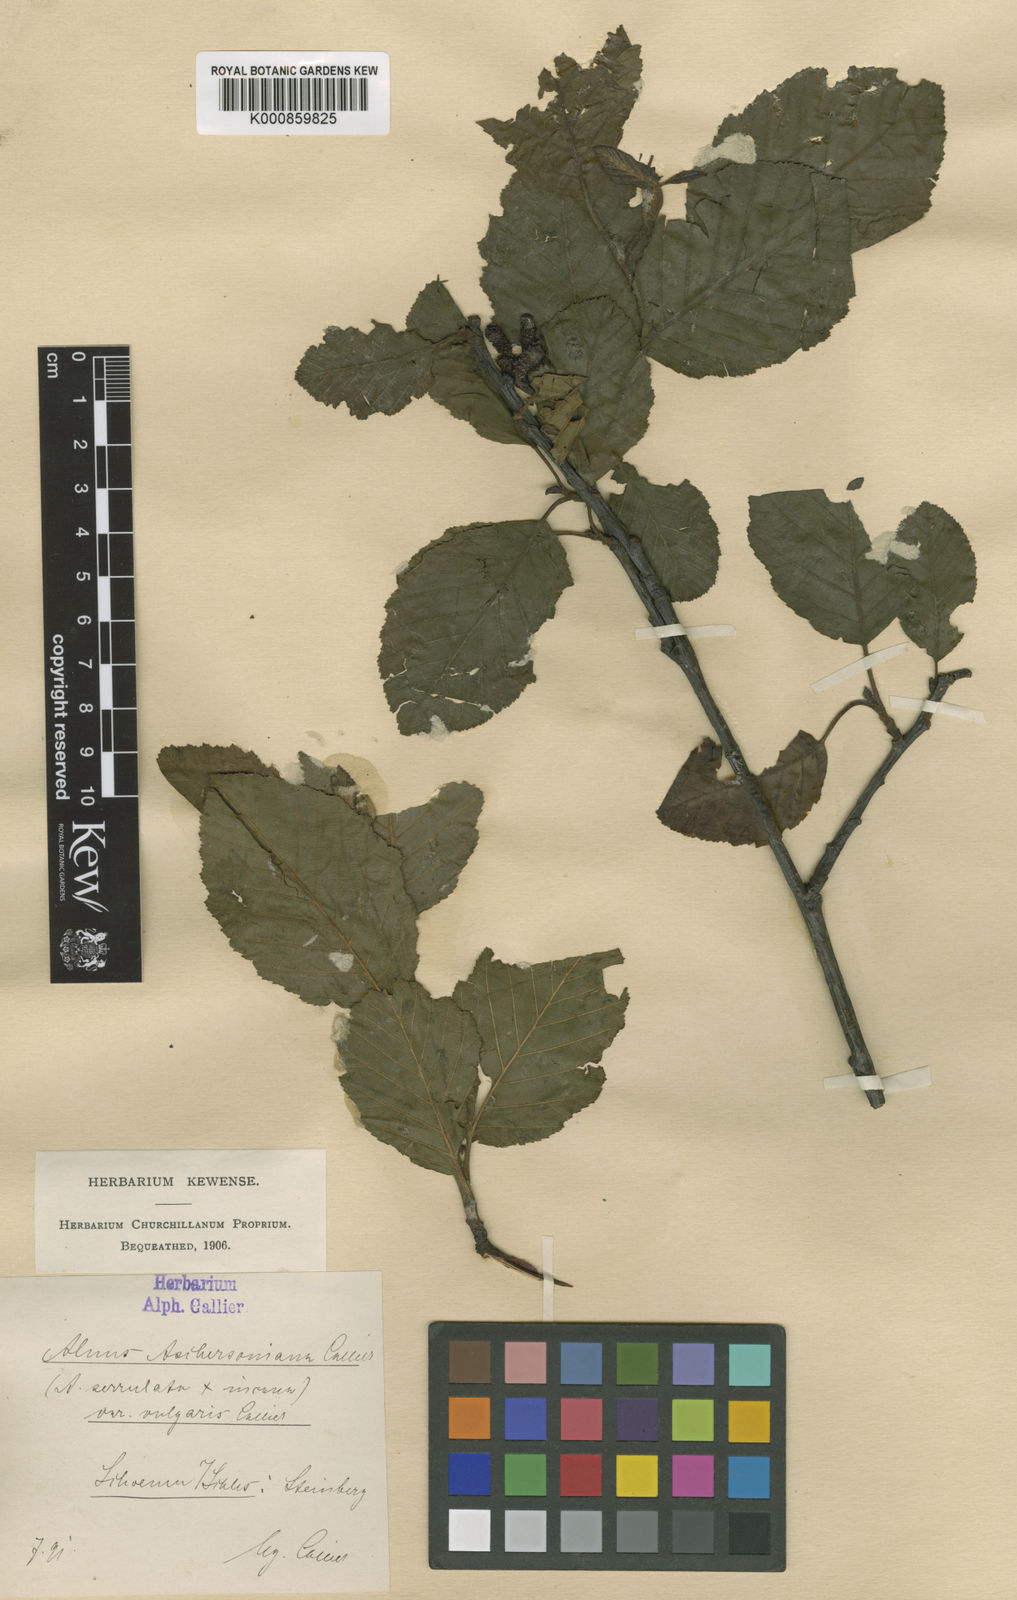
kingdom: Plantae
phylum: Tracheophyta
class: Magnoliopsida
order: Fagales
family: Betulaceae
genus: Alnus
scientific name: Alnus aschersoniana
